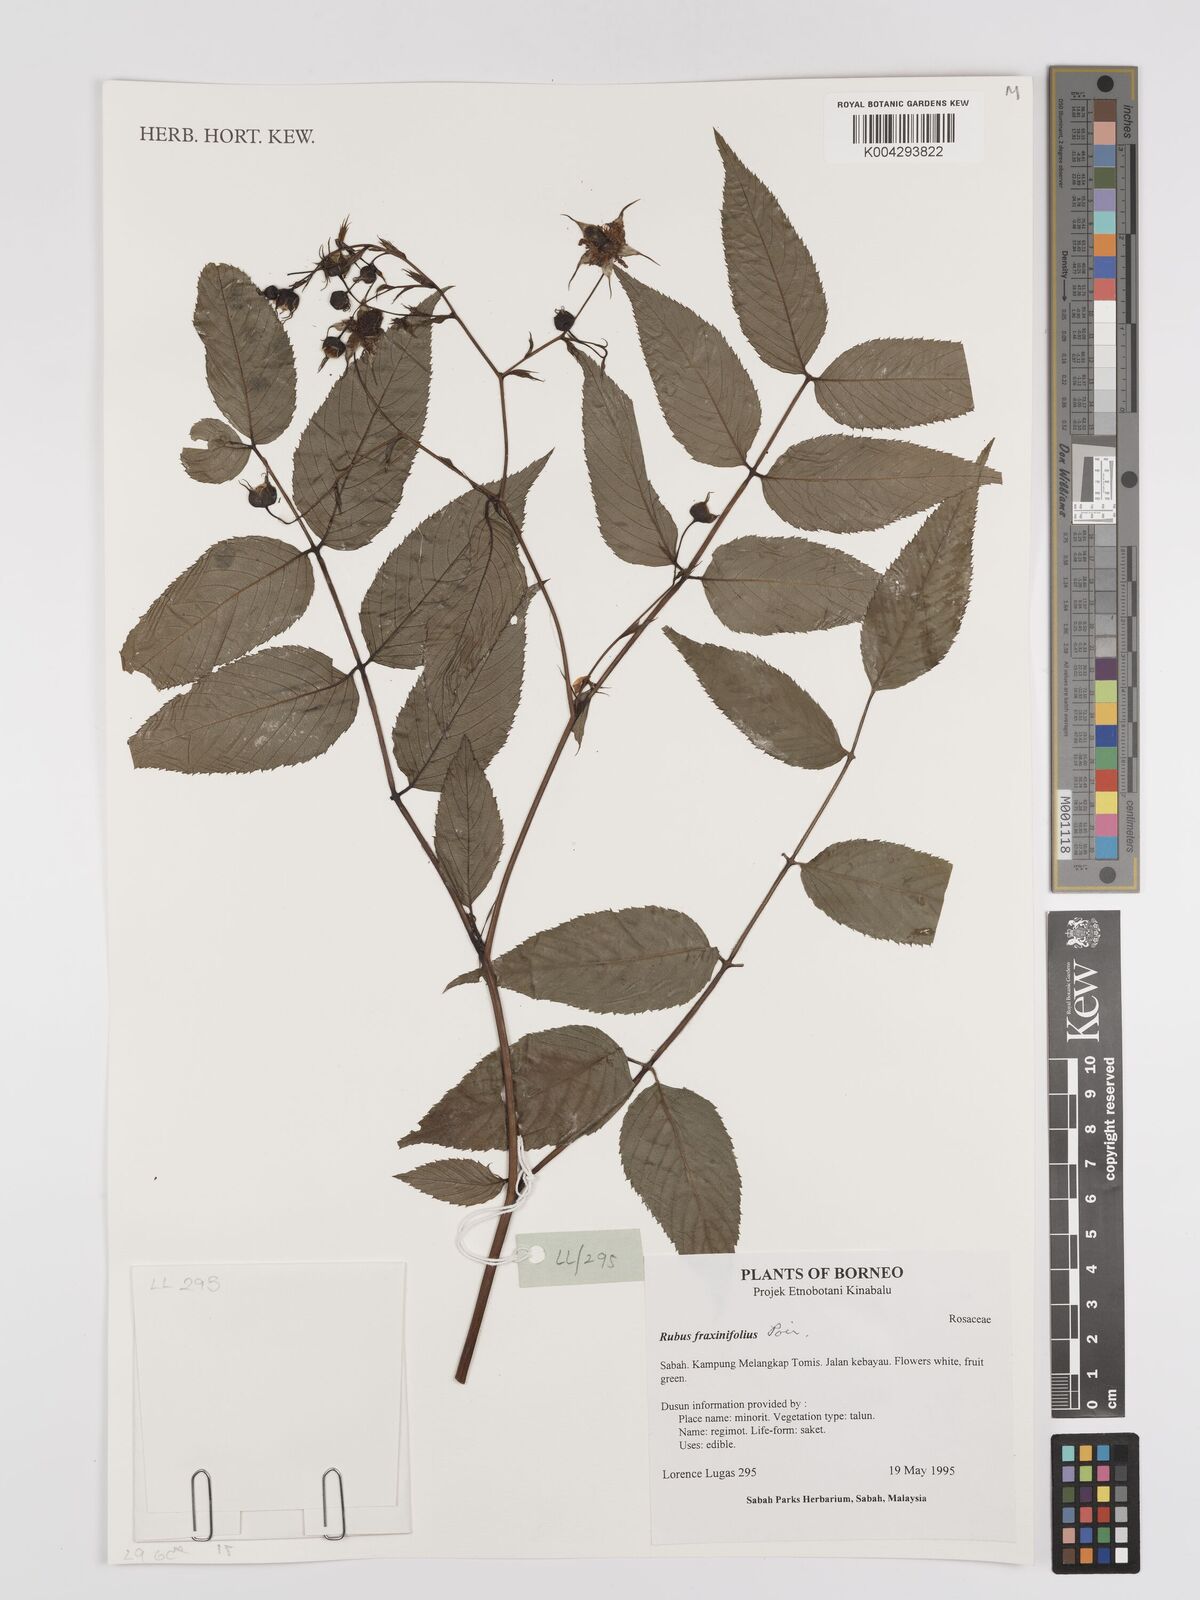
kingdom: Plantae
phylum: Tracheophyta
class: Magnoliopsida
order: Rosales
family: Rosaceae
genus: Rubus
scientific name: Rubus fraxinifolius
